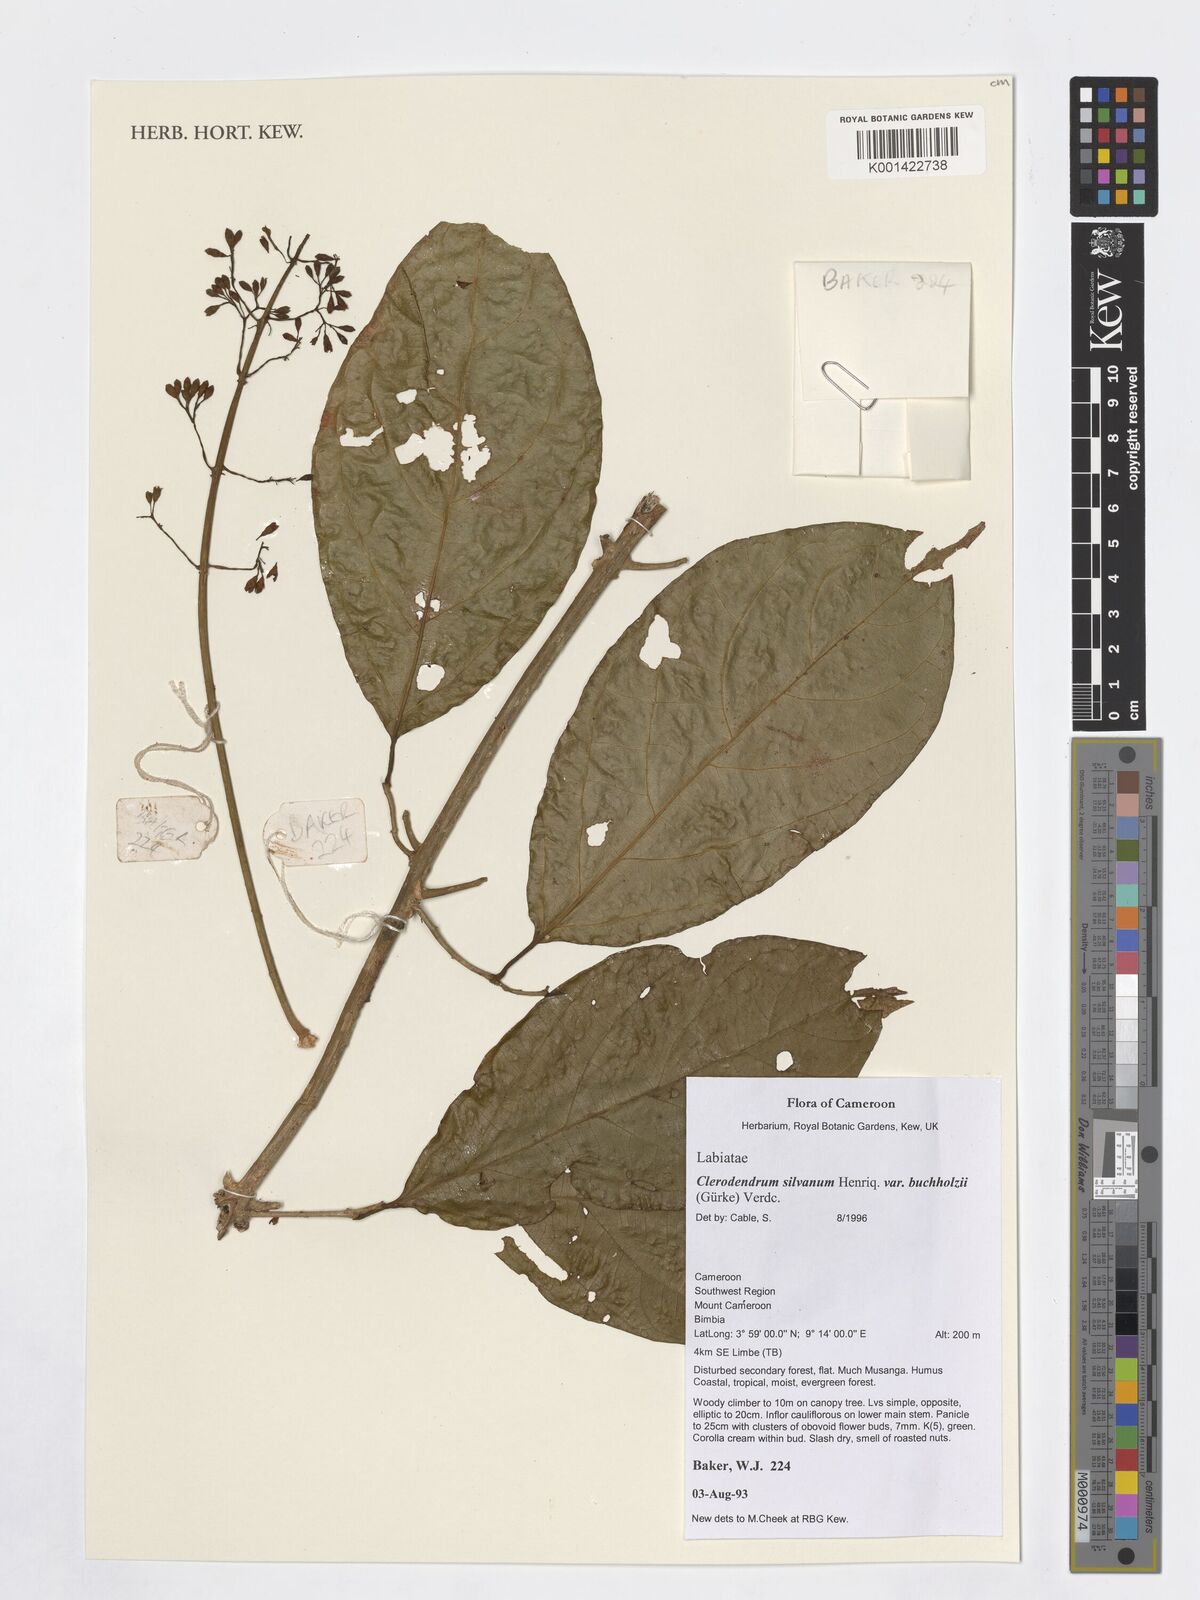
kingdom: Plantae
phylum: Tracheophyta
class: Magnoliopsida
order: Lamiales
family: Lamiaceae
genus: Clerodendrum
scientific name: Clerodendrum silvanum
